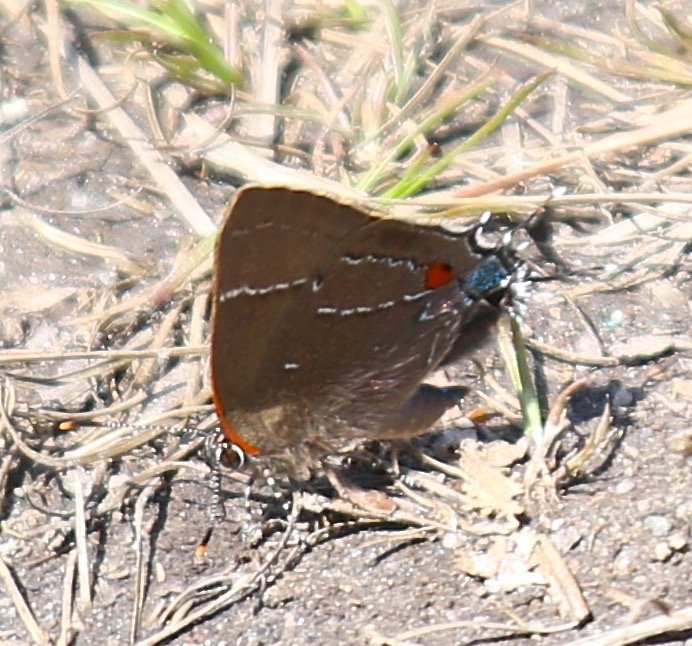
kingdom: Animalia
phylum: Arthropoda
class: Insecta
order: Lepidoptera
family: Lycaenidae
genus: Parrhasius
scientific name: Parrhasius m-album
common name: White-m Hairstreak
